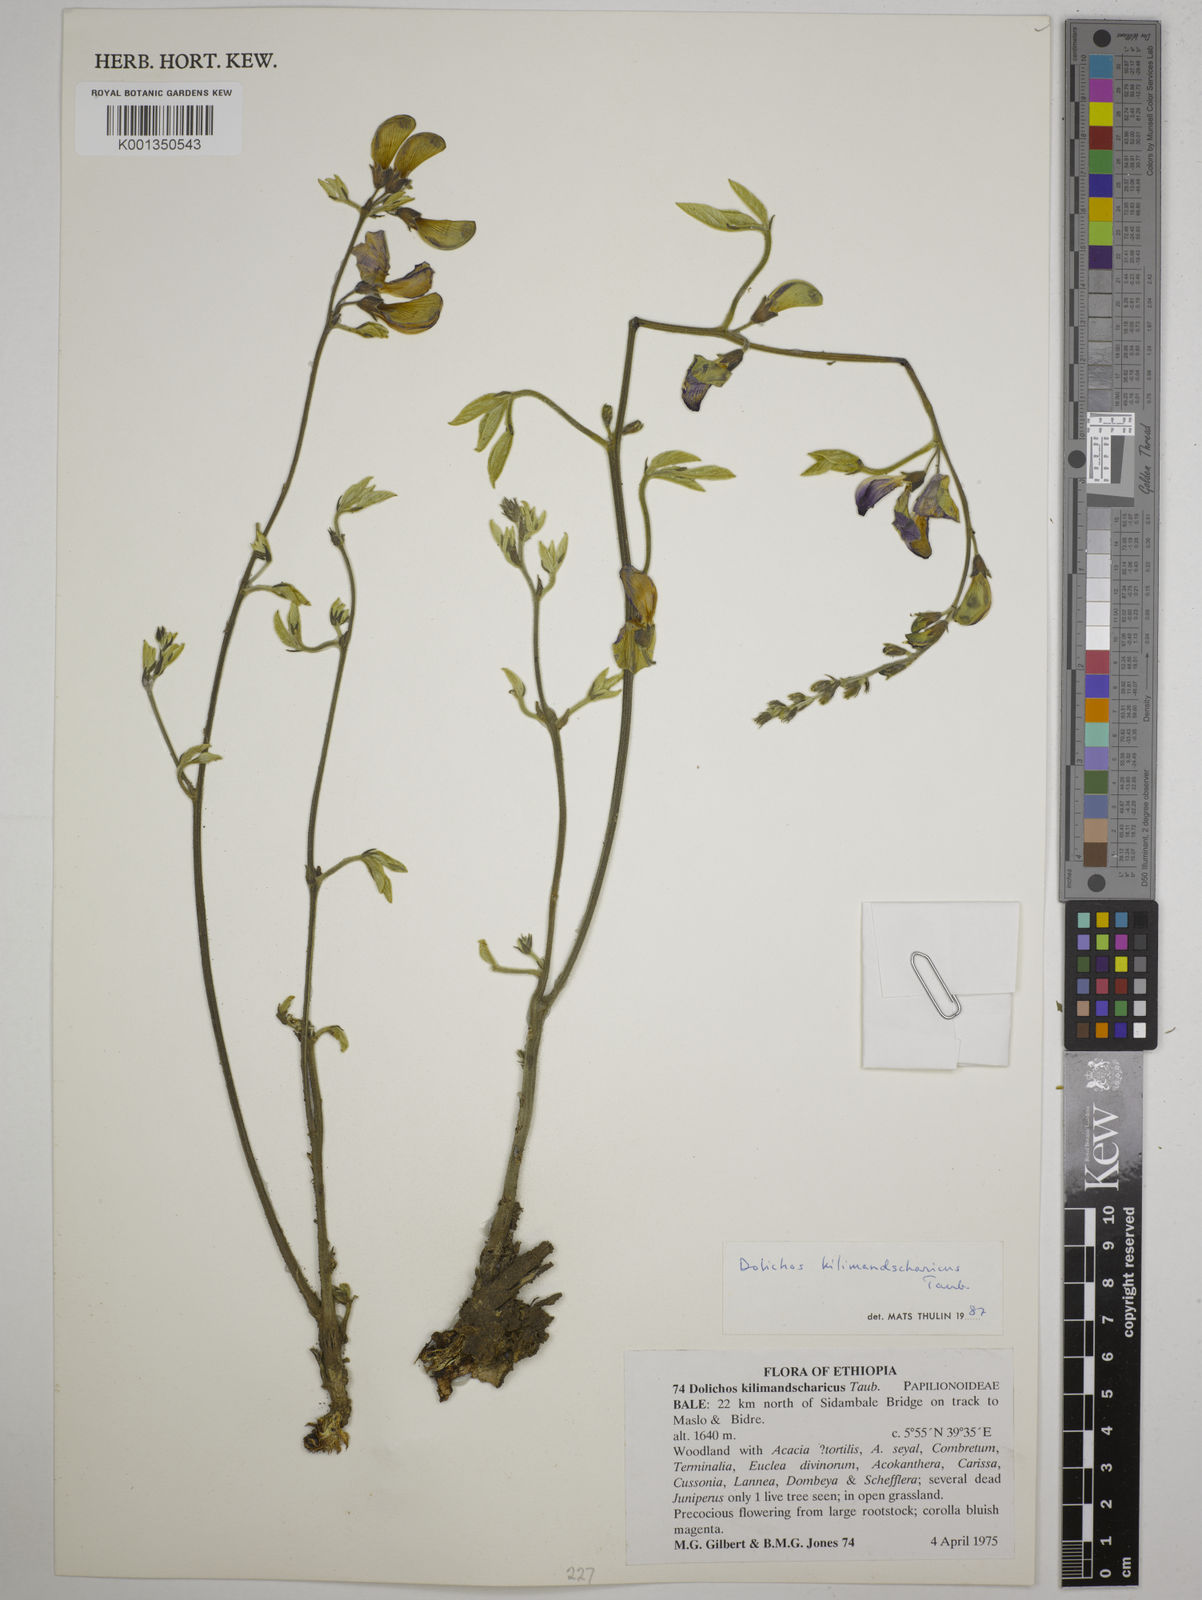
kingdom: Plantae
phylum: Tracheophyta
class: Magnoliopsida
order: Fabales
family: Fabaceae
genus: Dolichos
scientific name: Dolichos kilimandscharicus
